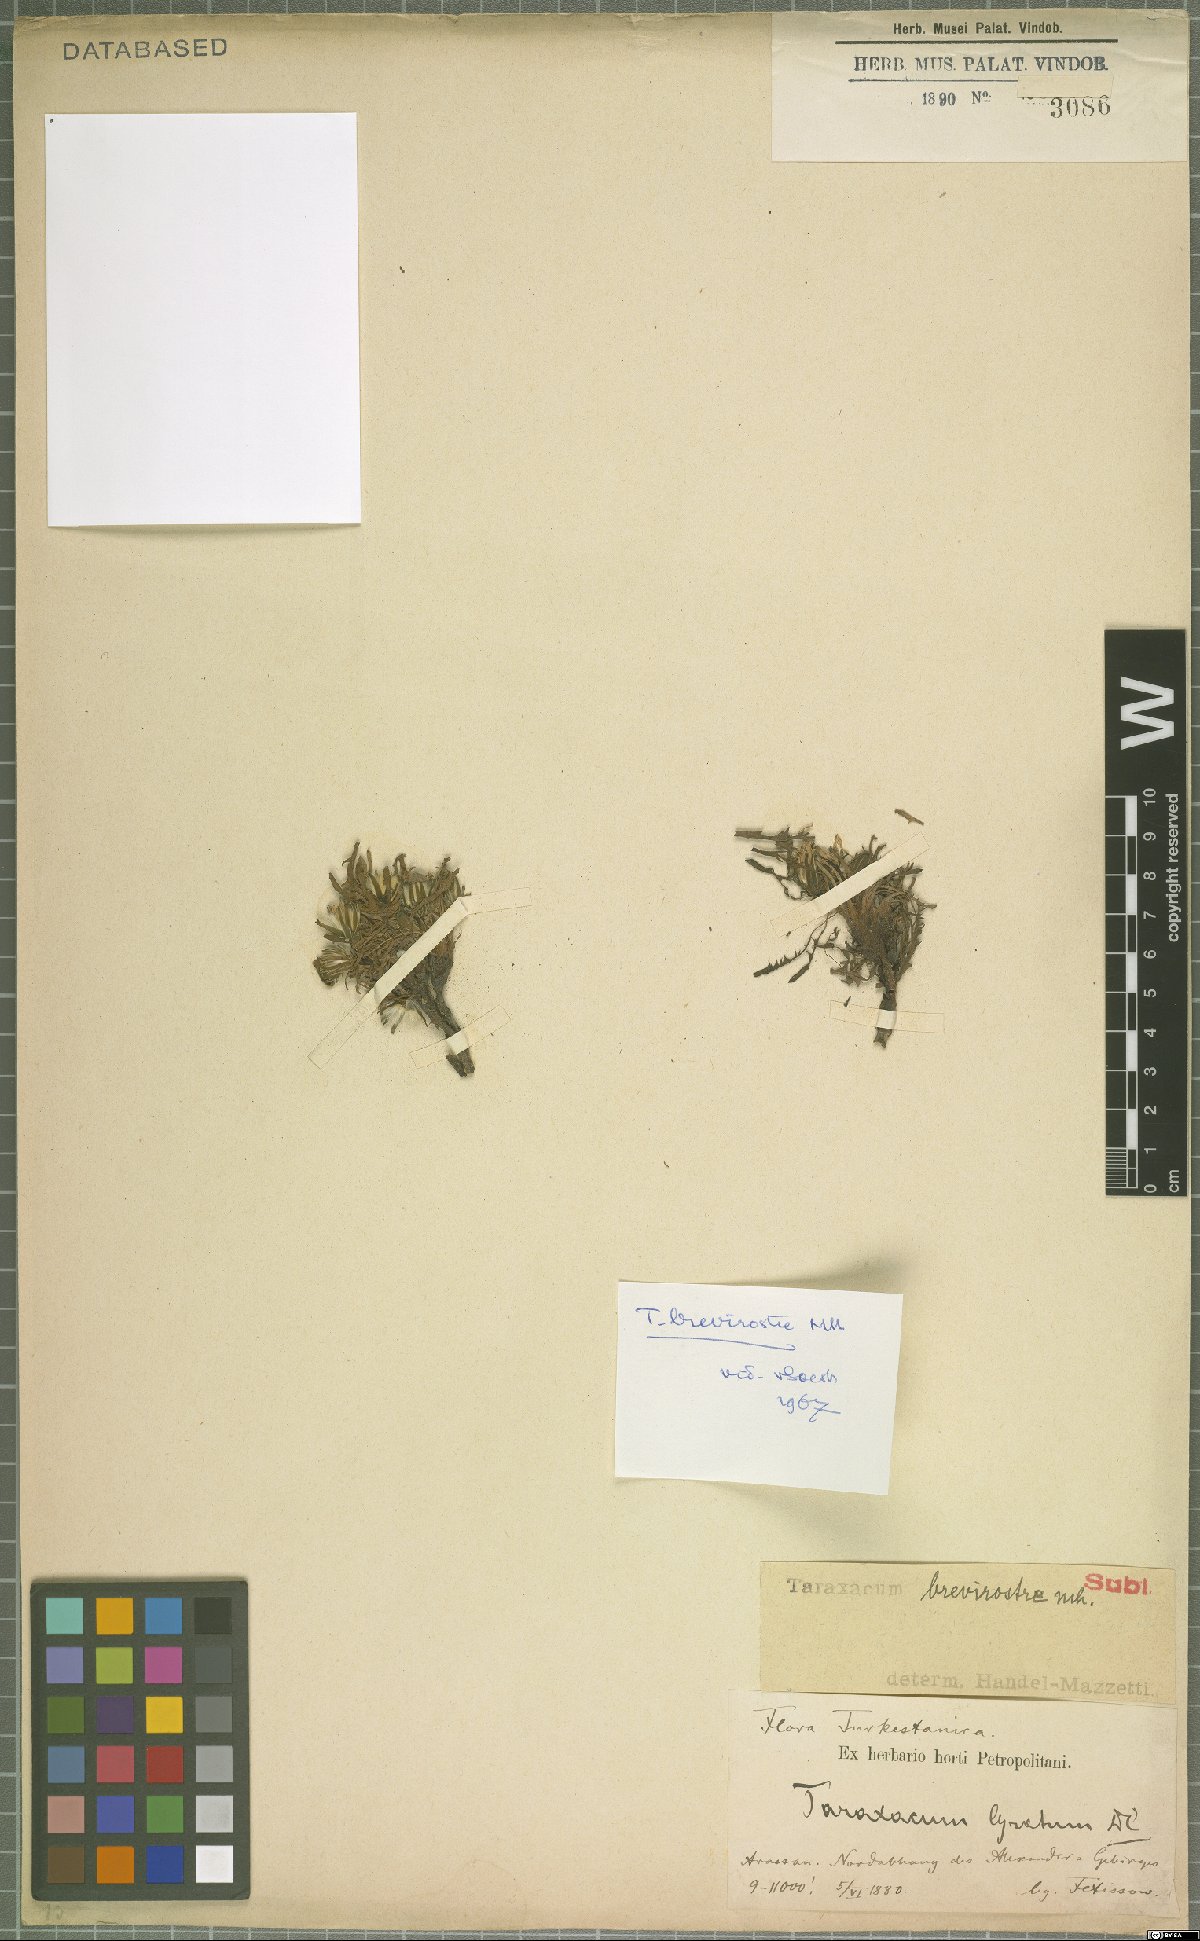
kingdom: Plantae
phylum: Tracheophyta
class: Magnoliopsida
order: Asterales
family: Asteraceae
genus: Taraxacum
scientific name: Taraxacum brevirostre
